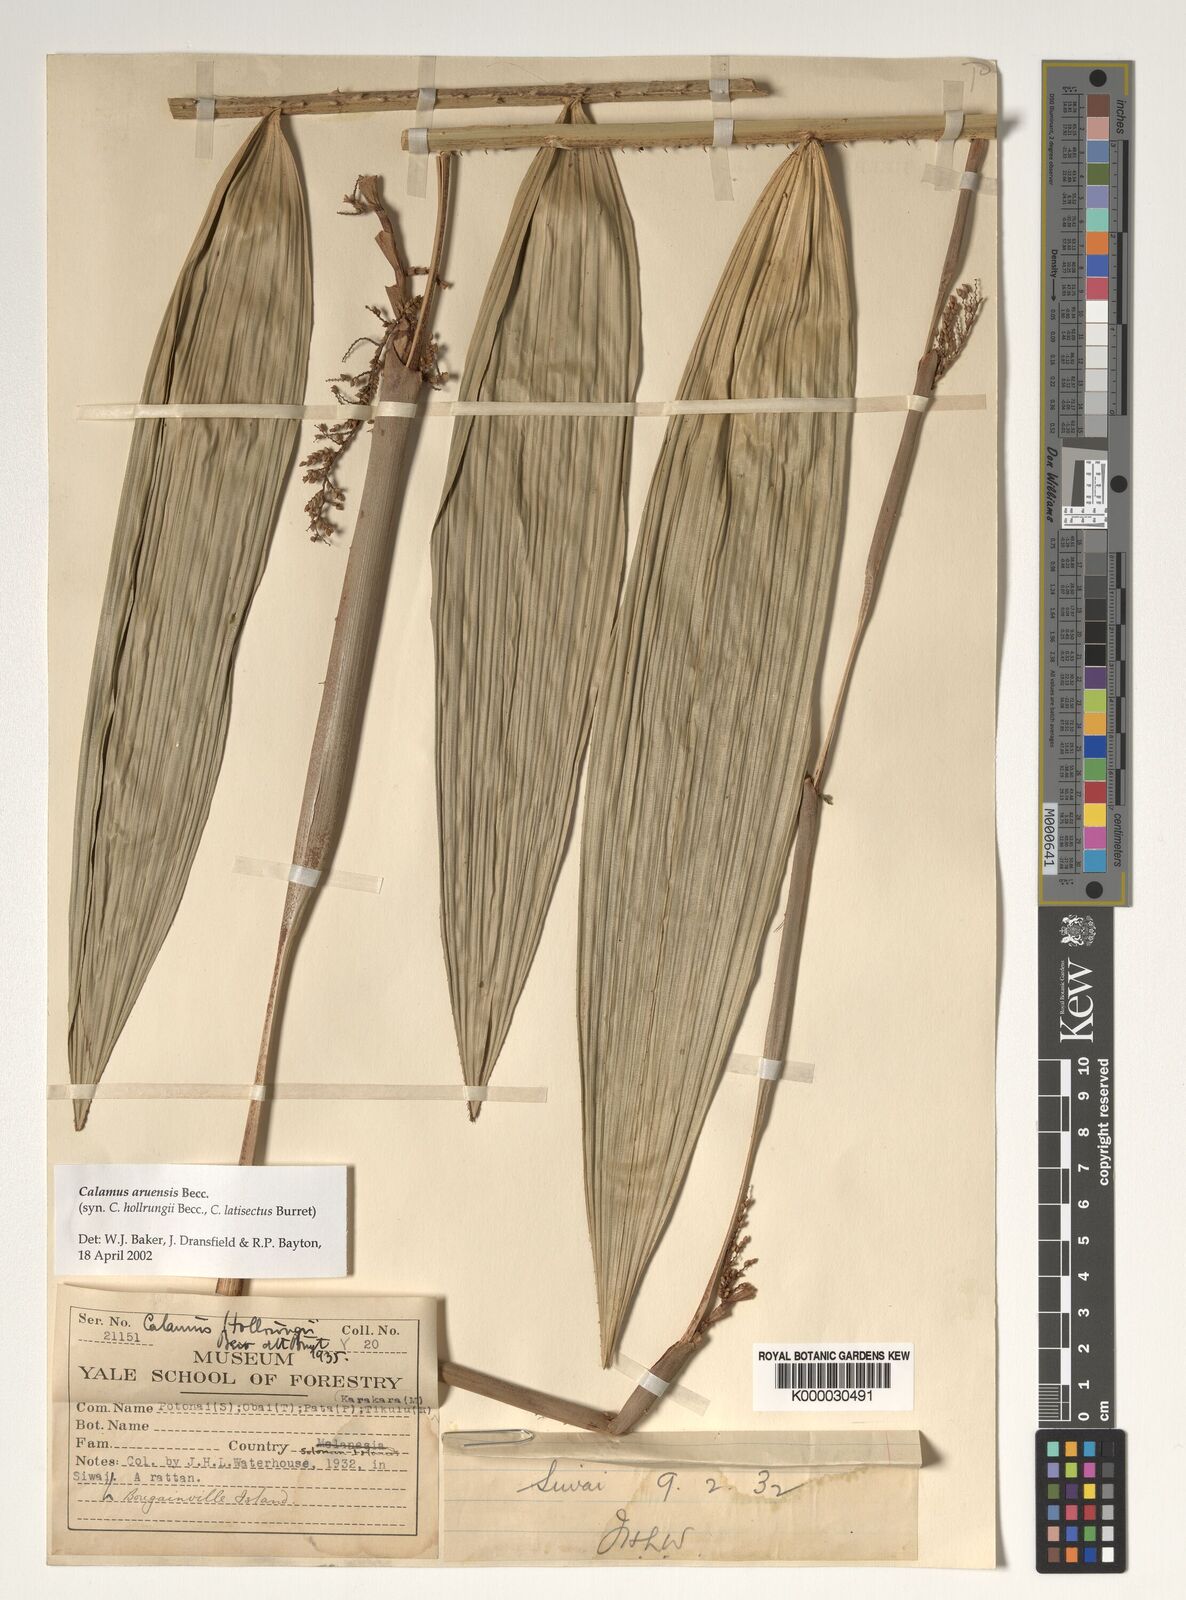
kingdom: Plantae
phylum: Tracheophyta
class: Liliopsida
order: Arecales
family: Arecaceae
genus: Calamus
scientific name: Calamus aruensis
